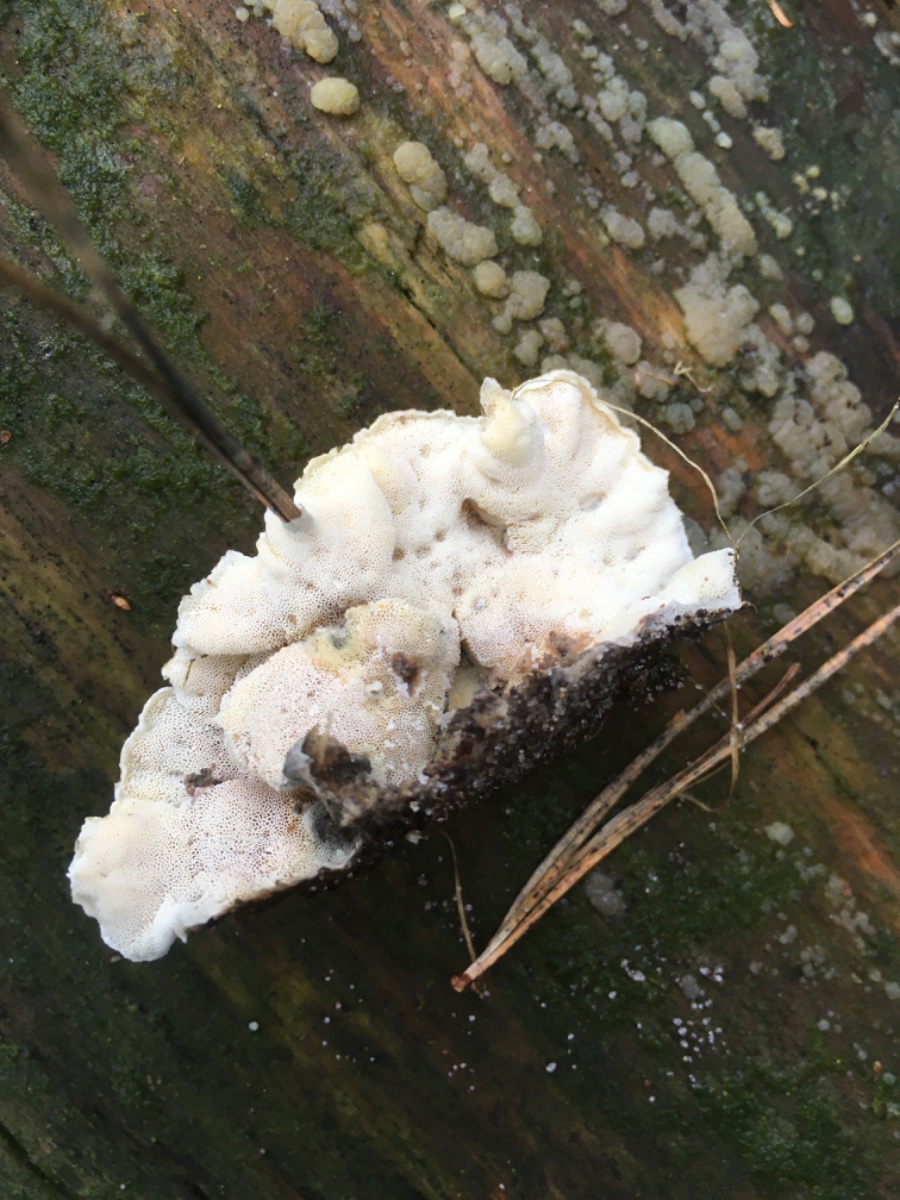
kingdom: Fungi
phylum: Basidiomycota
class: Agaricomycetes
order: Polyporales
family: Incrustoporiaceae
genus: Skeletocutis
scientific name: Skeletocutis amorpha
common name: orange krystalporesvamp
